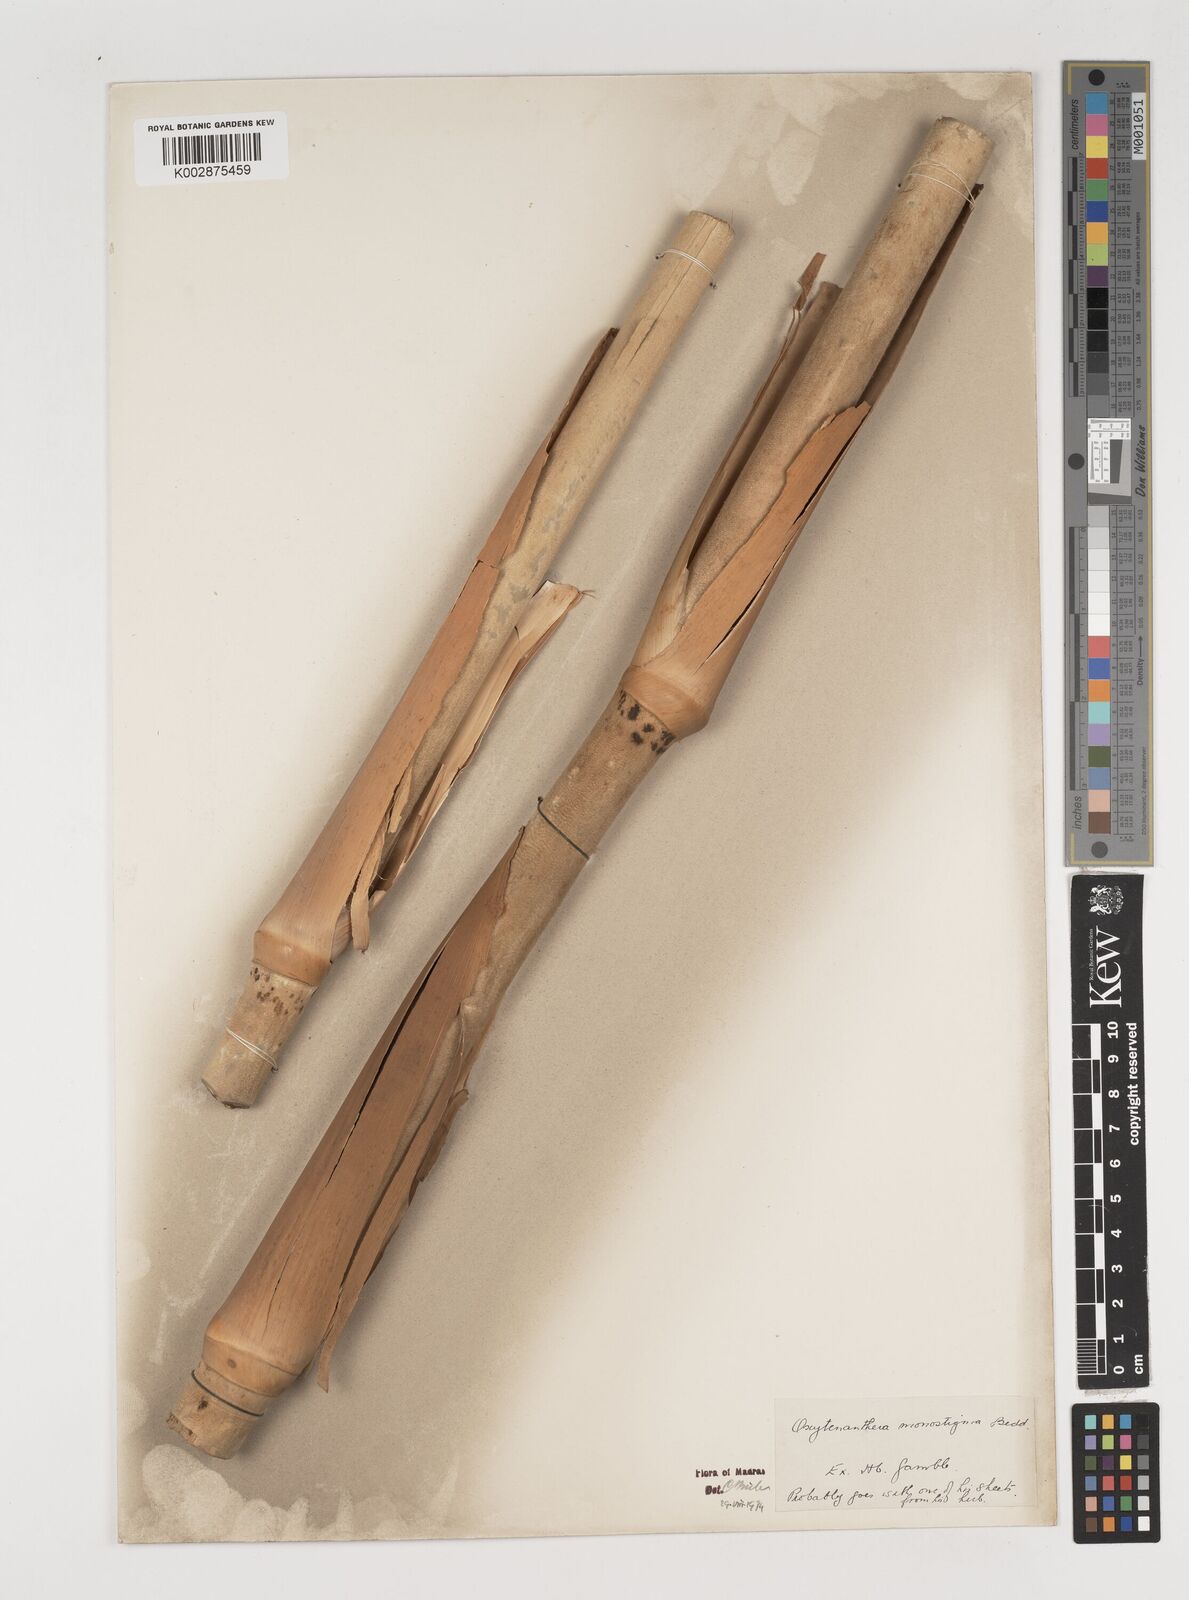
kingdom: Plantae
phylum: Tracheophyta
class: Liliopsida
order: Poales
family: Poaceae
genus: Dendrocalamus
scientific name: Dendrocalamus
